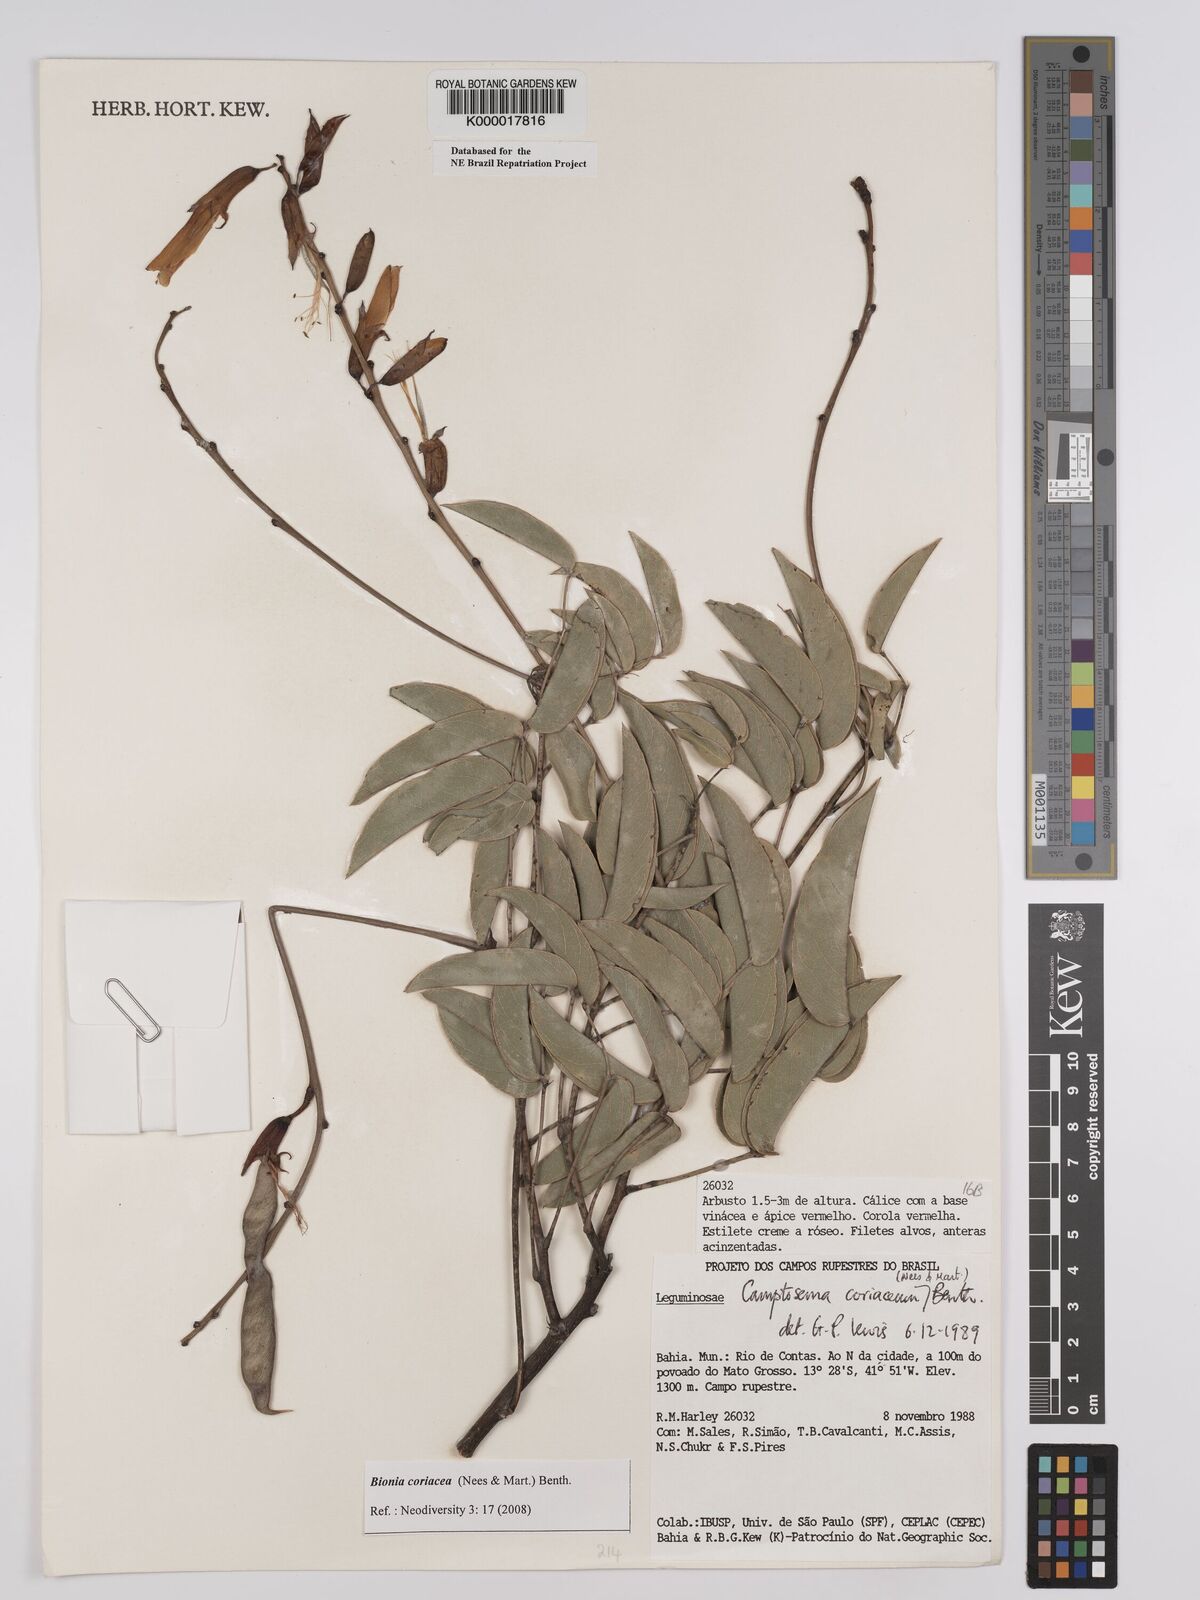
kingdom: Plantae
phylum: Tracheophyta
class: Magnoliopsida
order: Fabales
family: Fabaceae
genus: Camptosema
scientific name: Camptosema coriaceum
